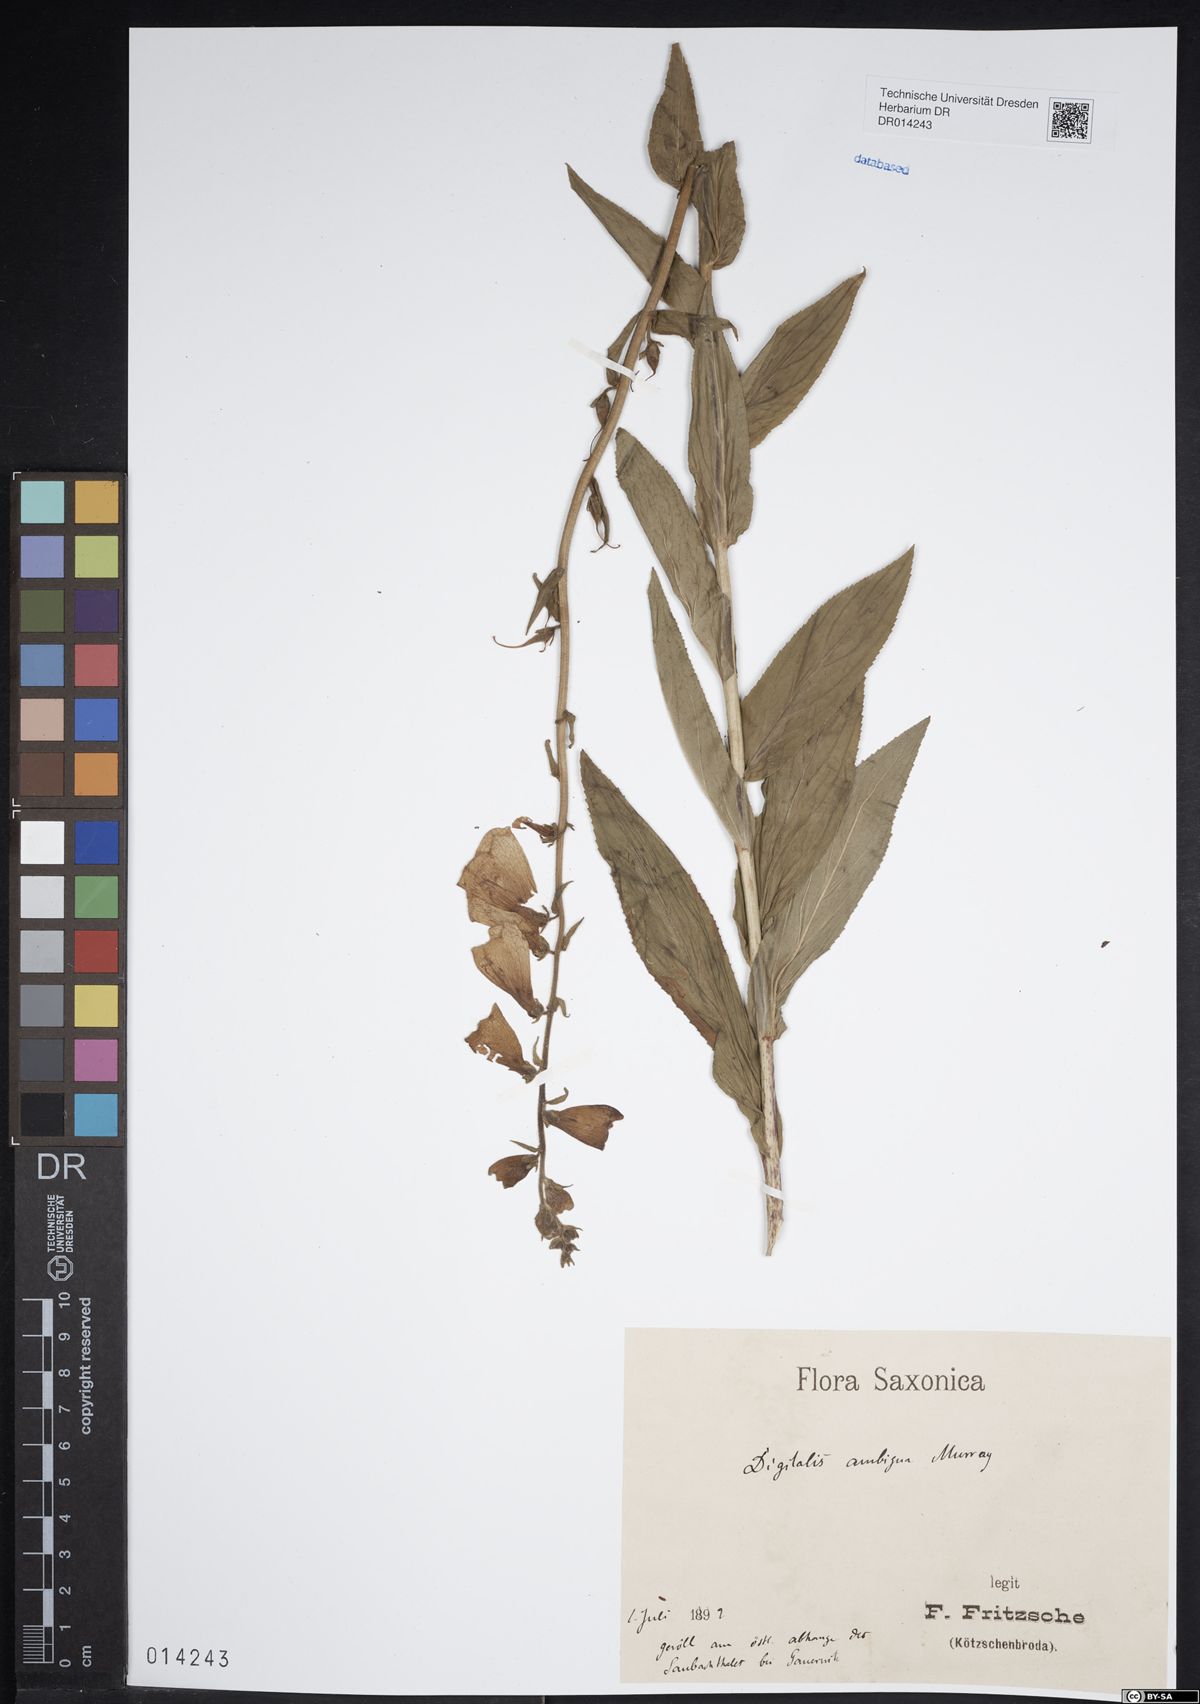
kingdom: Plantae
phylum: Tracheophyta
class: Magnoliopsida
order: Lamiales
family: Plantaginaceae
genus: Digitalis
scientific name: Digitalis grandiflora
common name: Yellow foxglove
